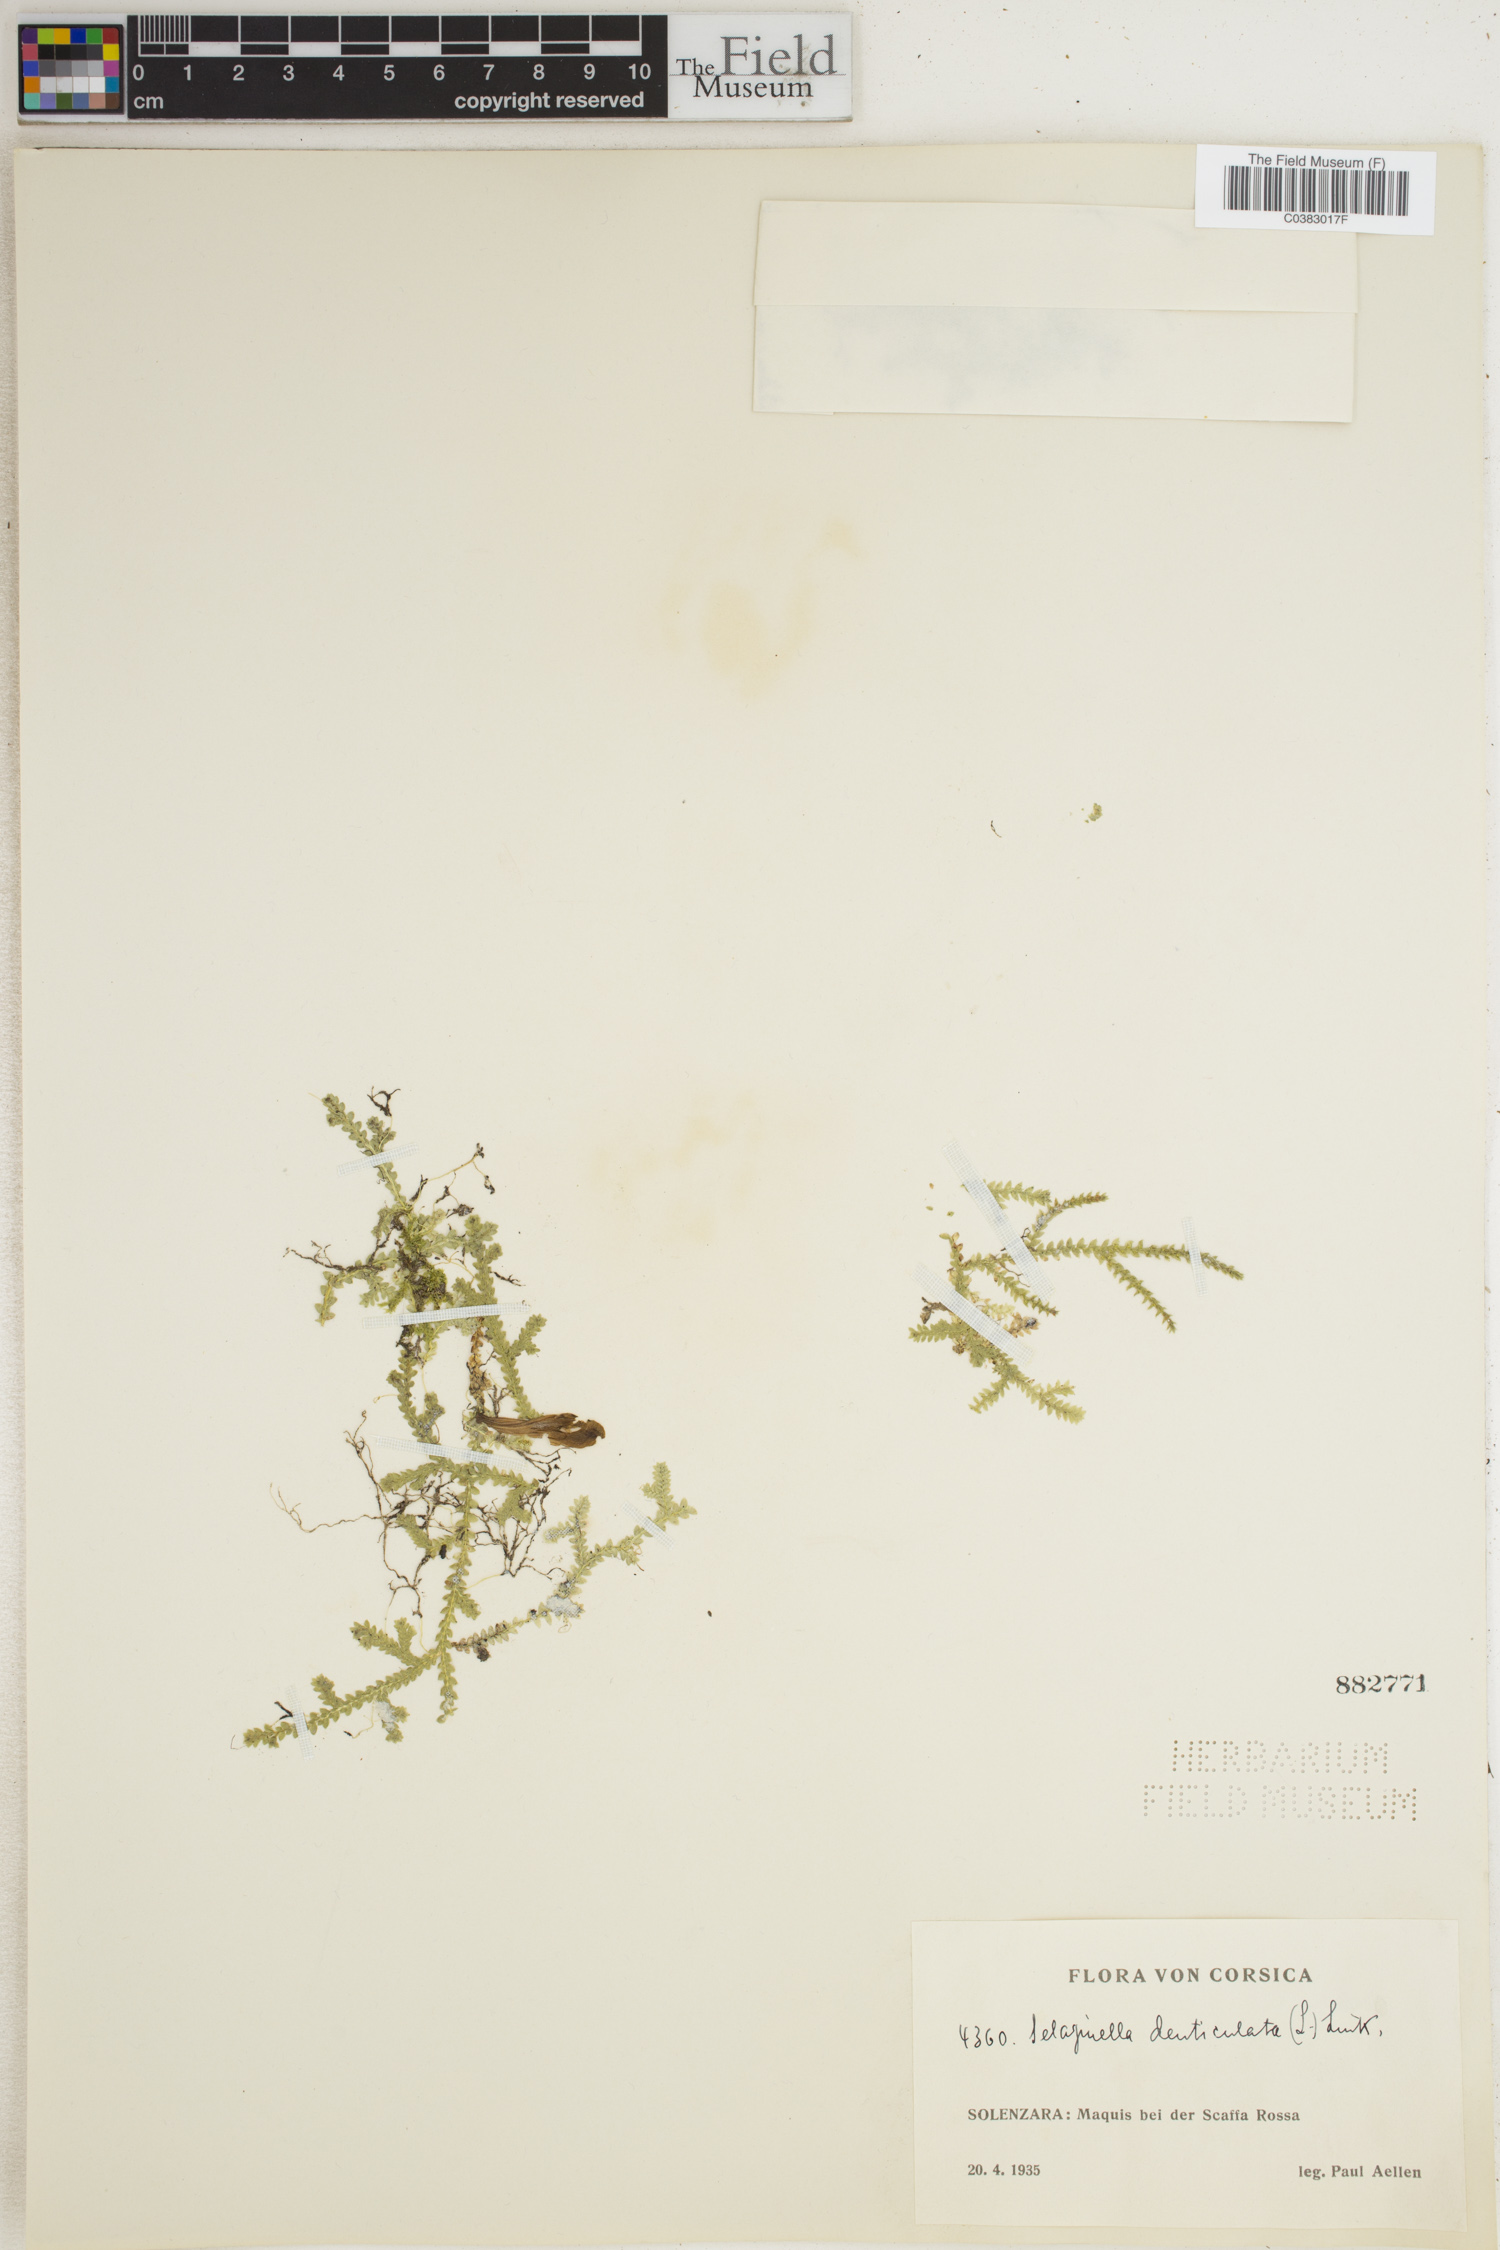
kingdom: Plantae
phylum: Tracheophyta
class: Lycopodiopsida
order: Selaginellales
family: Selaginellaceae
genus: Selaginella
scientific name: Selaginella denticulata
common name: Toothed-leaved clubmoss
